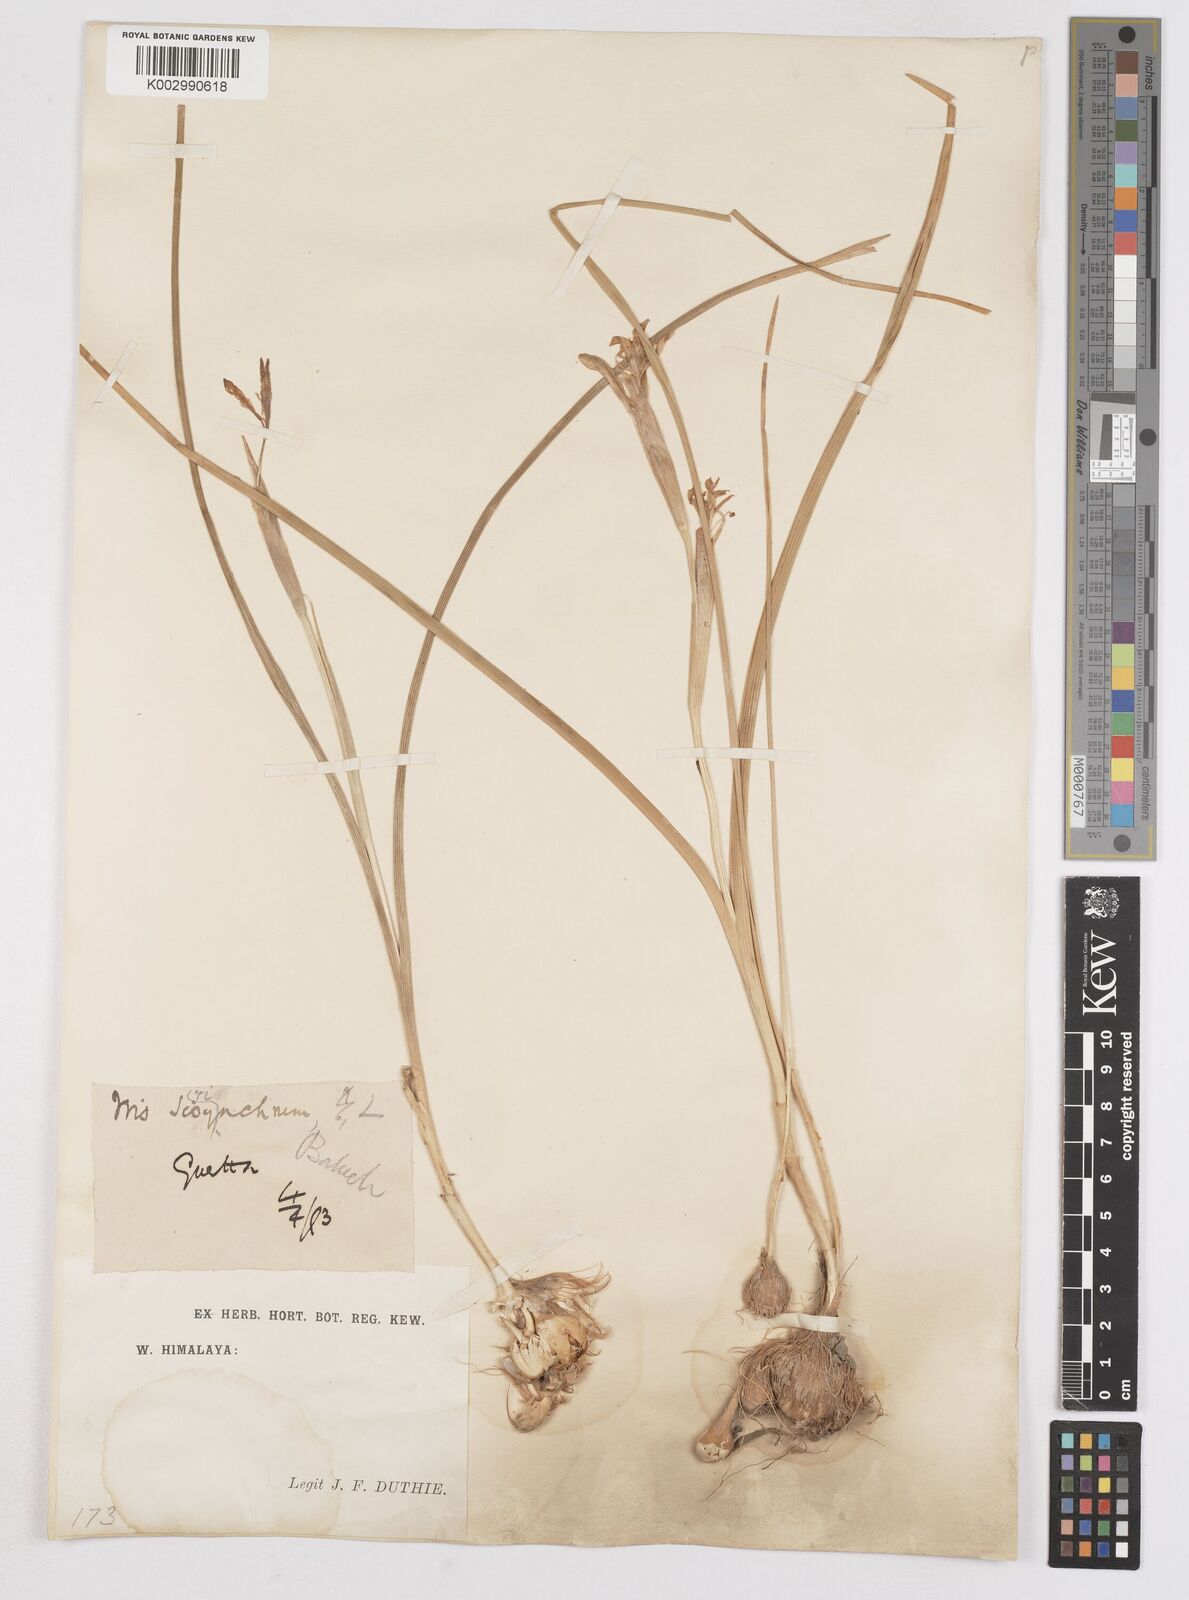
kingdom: Plantae
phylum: Tracheophyta
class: Liliopsida
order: Asparagales
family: Iridaceae
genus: Moraea
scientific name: Moraea sisyrinchium
